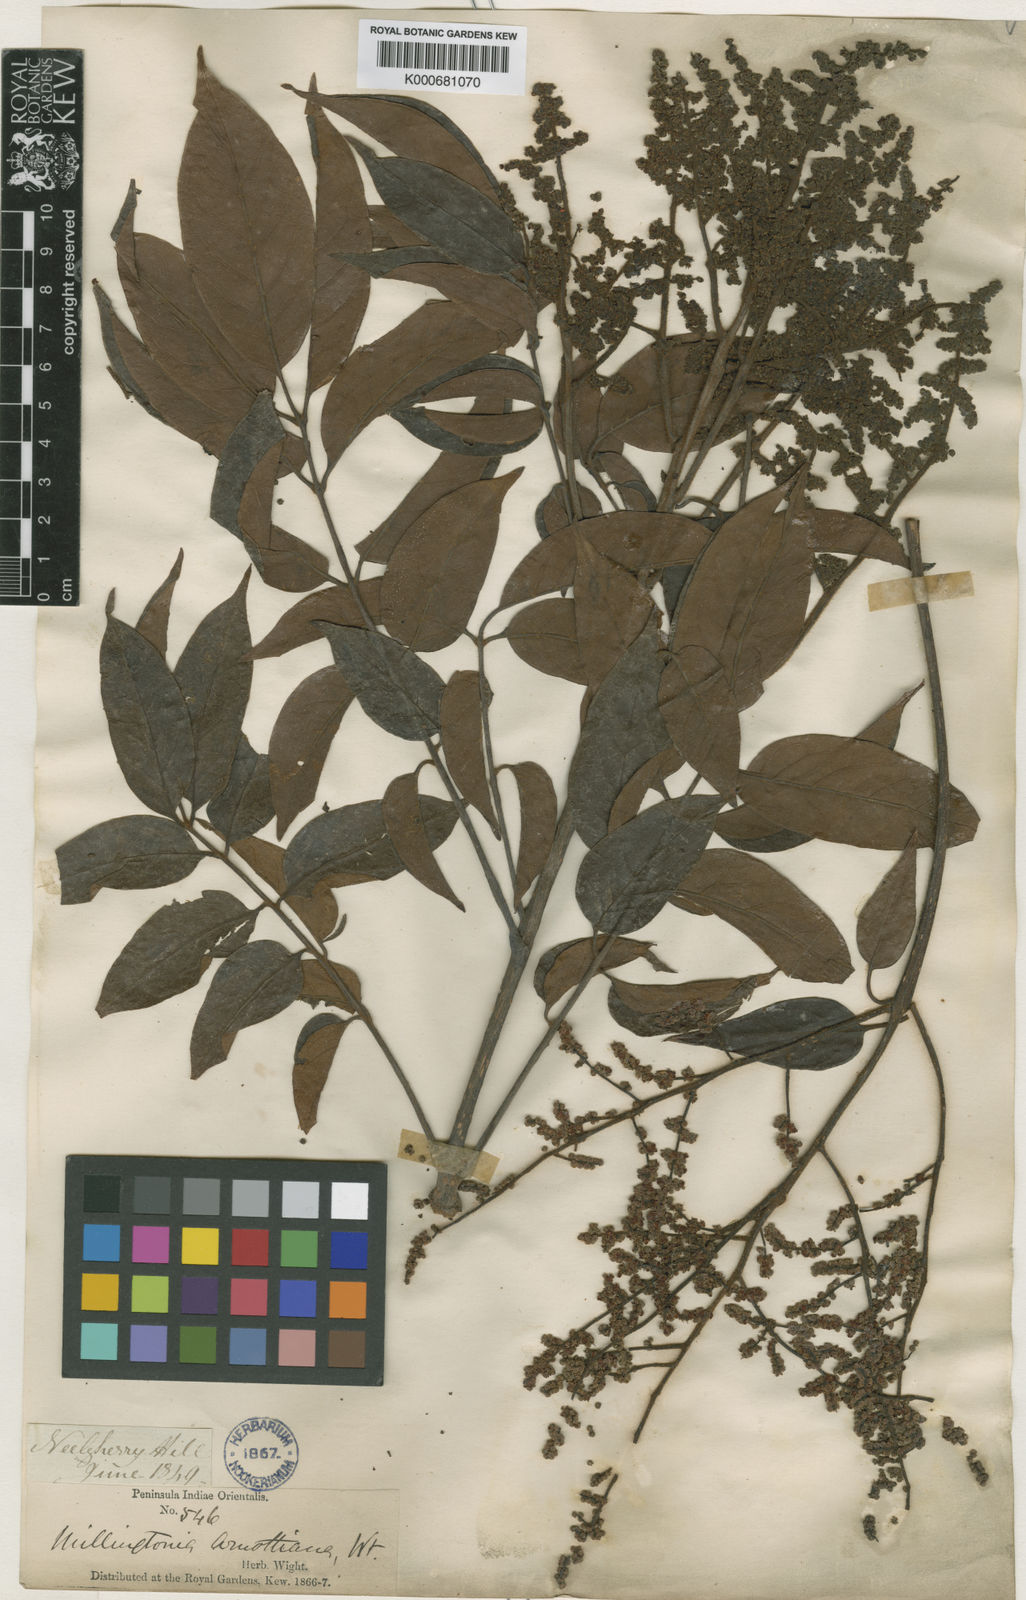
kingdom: Plantae
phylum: Tracheophyta
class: Magnoliopsida
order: Proteales
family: Sabiaceae
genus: Meliosma
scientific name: Meliosma pinnata
